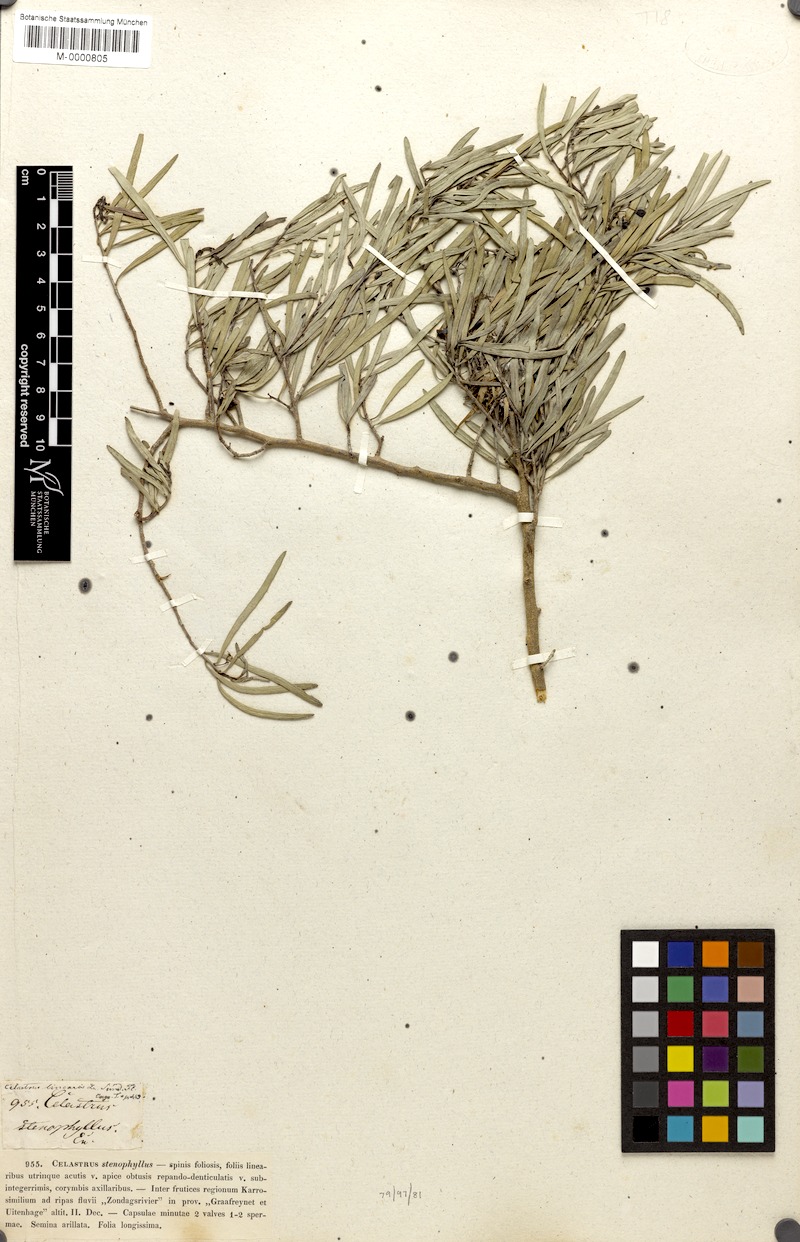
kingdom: Plantae
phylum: Tracheophyta
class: Magnoliopsida
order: Celastrales
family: Celastraceae
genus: Gymnosporia
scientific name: Gymnosporia linearis
